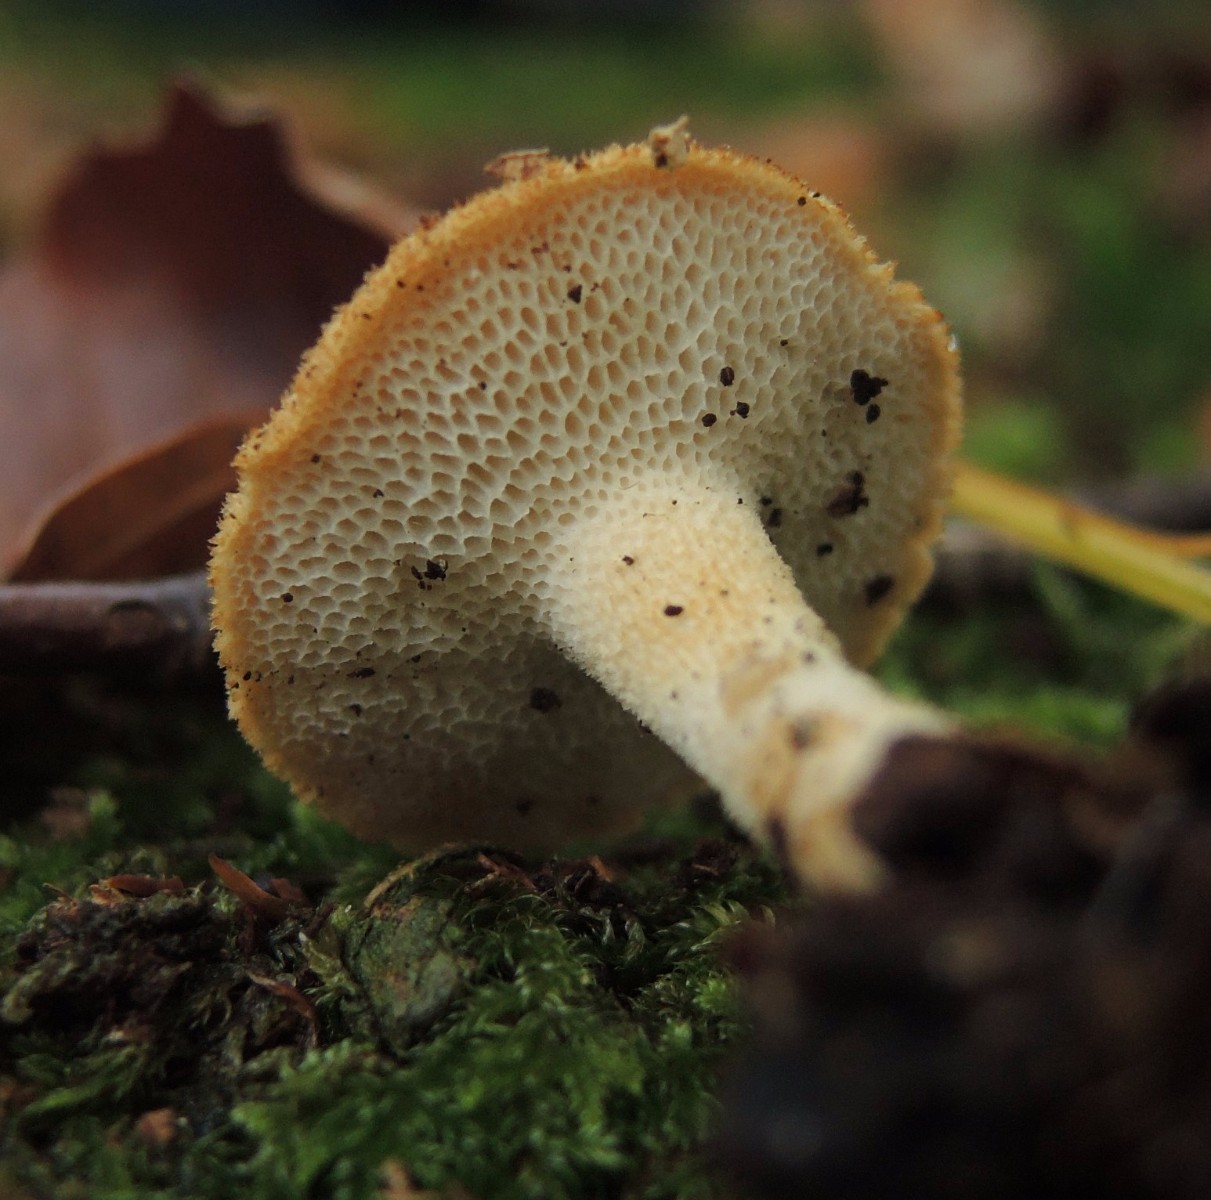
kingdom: Fungi
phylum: Basidiomycota
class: Agaricomycetes
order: Polyporales
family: Polyporaceae
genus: Polyporus
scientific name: Polyporus tuberaster
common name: knoldet stilkporesvamp
